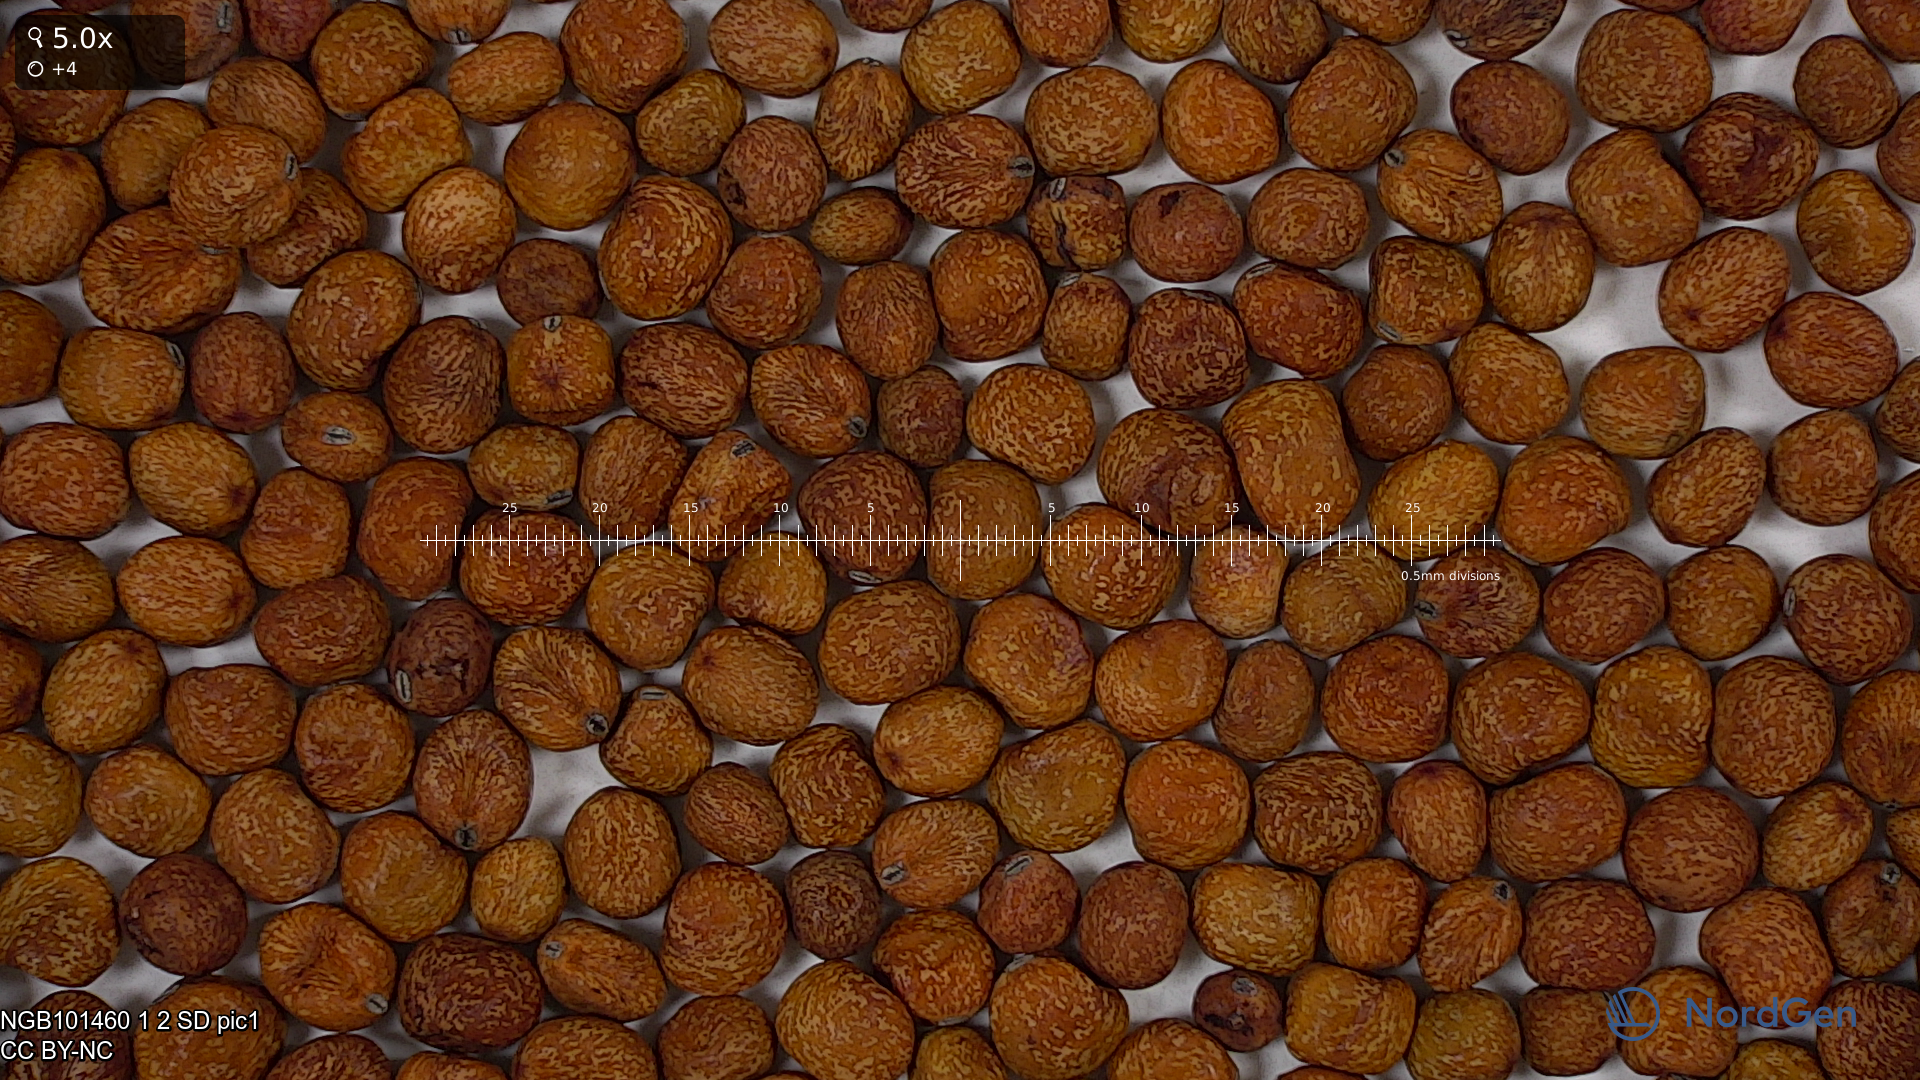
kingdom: Plantae
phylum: Tracheophyta
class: Magnoliopsida
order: Fabales
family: Fabaceae
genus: Lathyrus
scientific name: Lathyrus oleraceus
